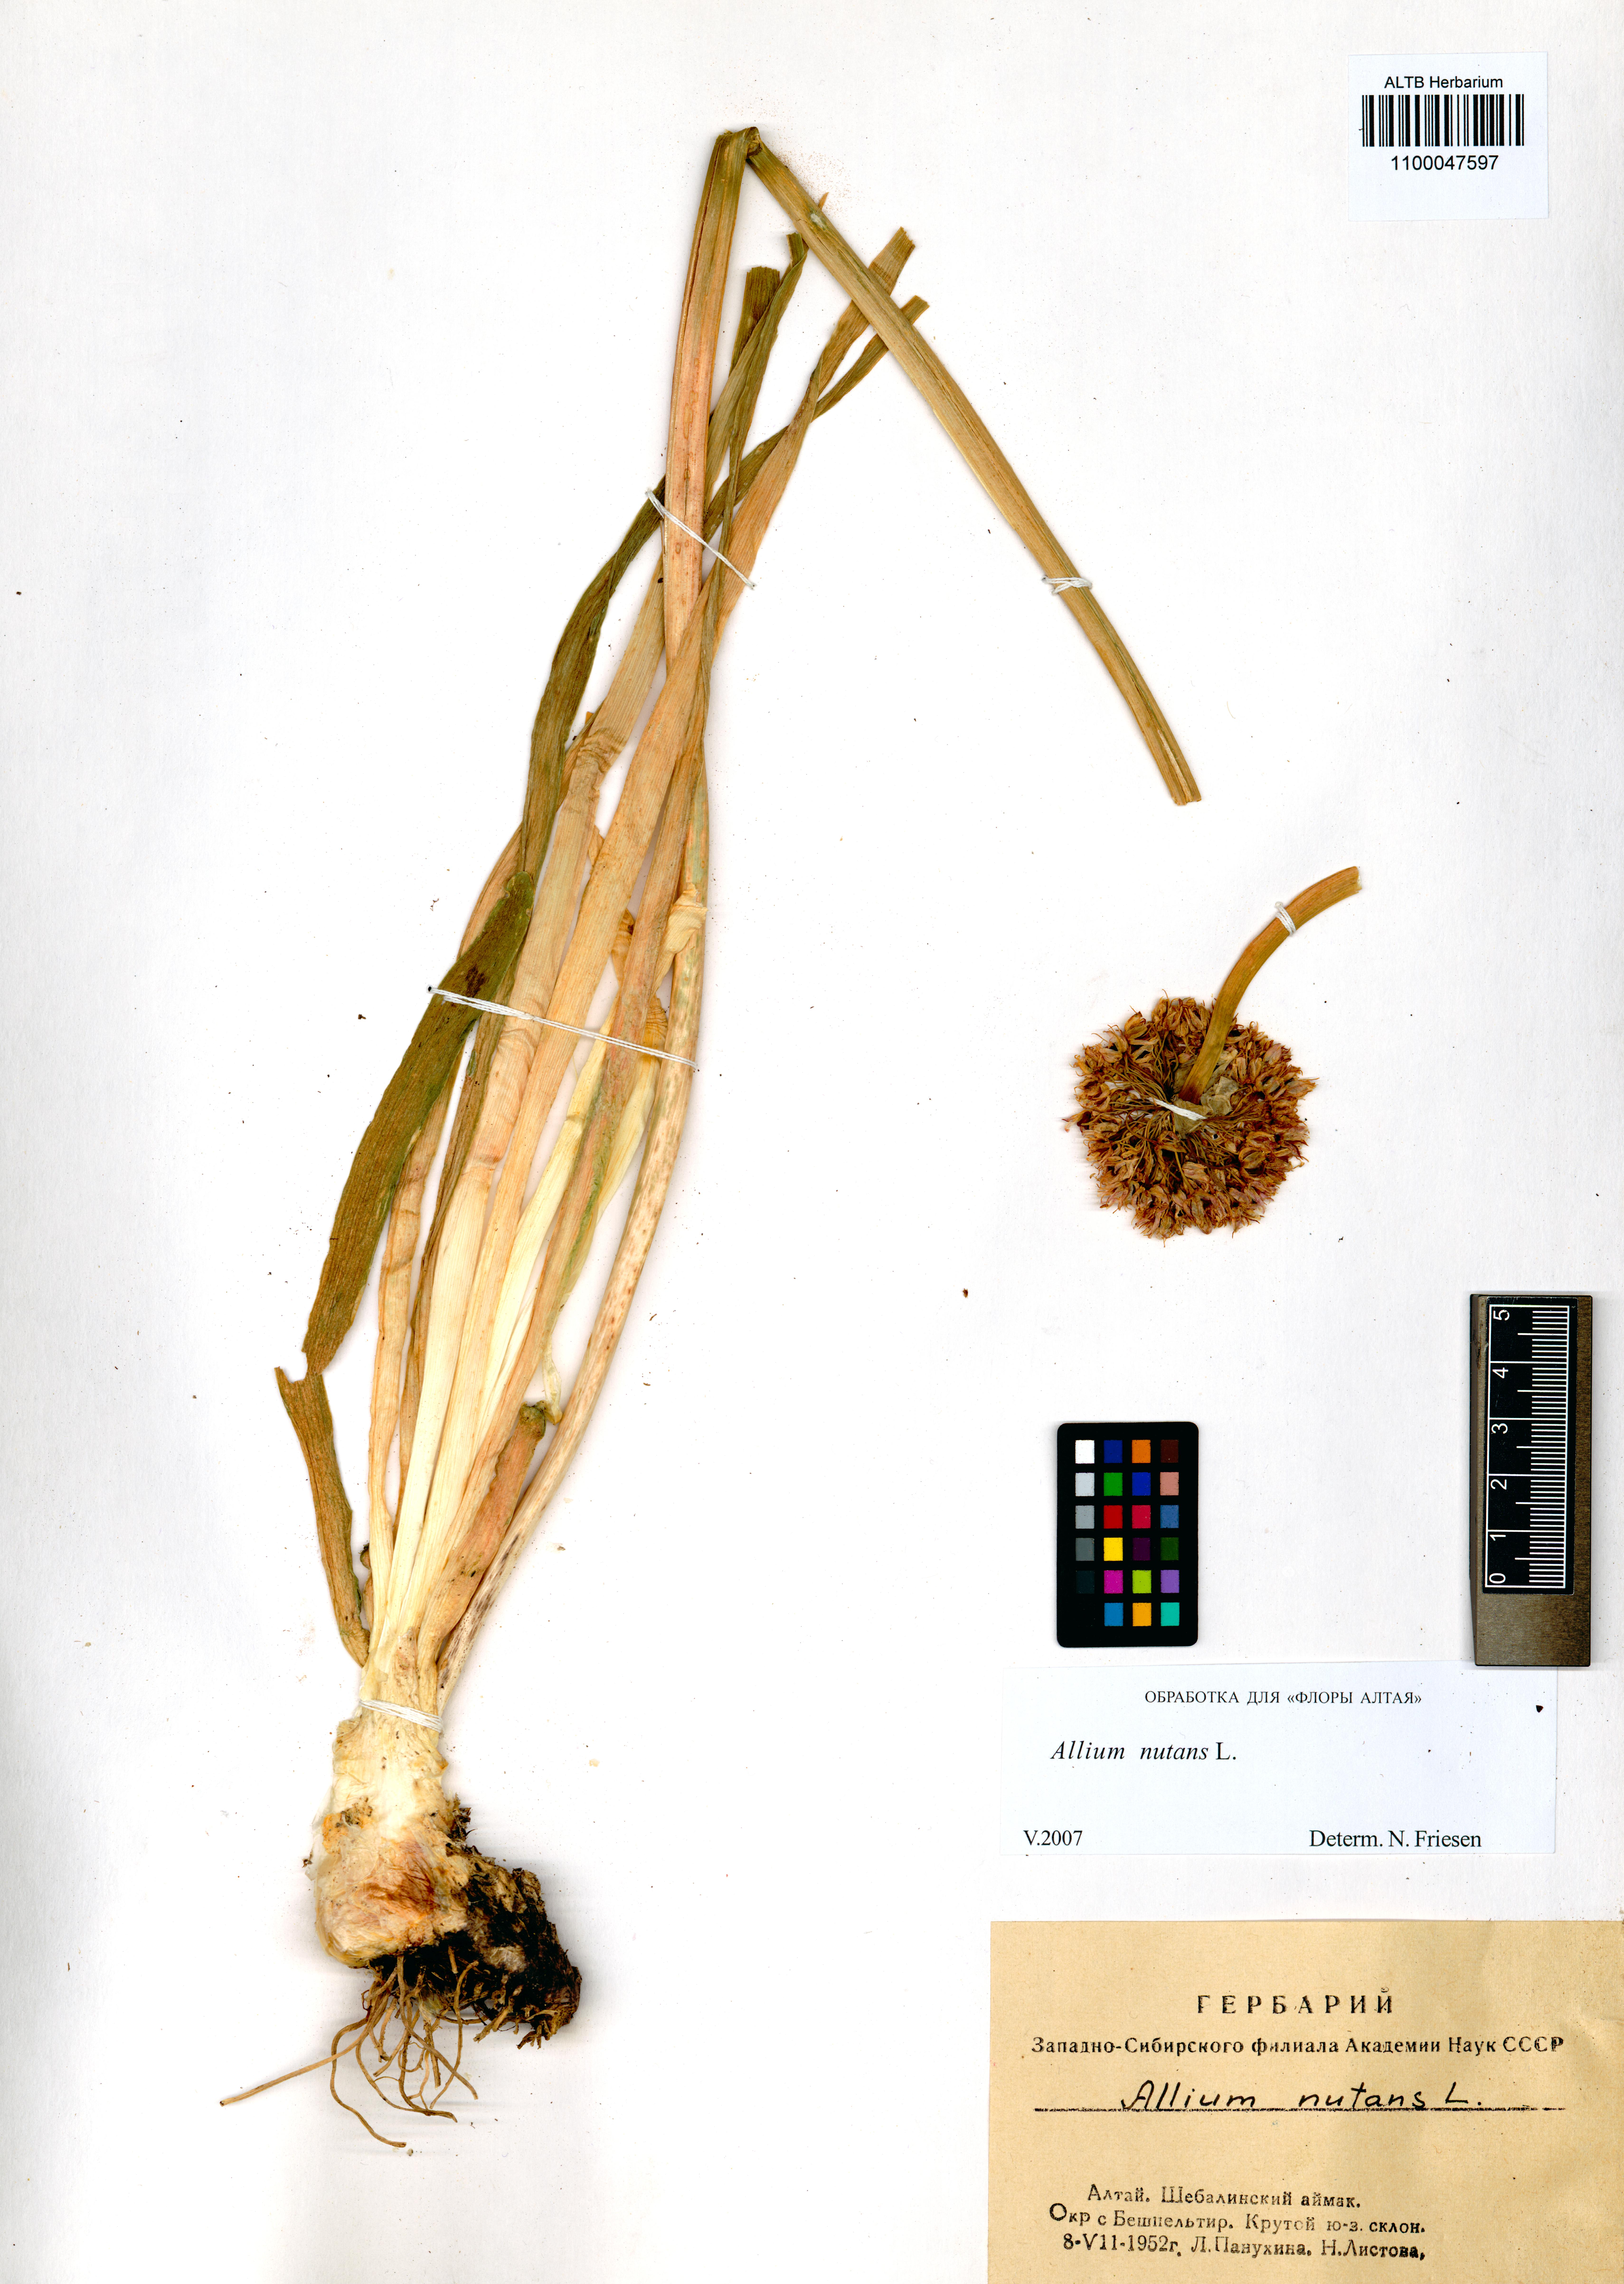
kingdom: Plantae
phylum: Tracheophyta
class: Liliopsida
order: Asparagales
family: Amaryllidaceae
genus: Allium
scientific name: Allium nutans
